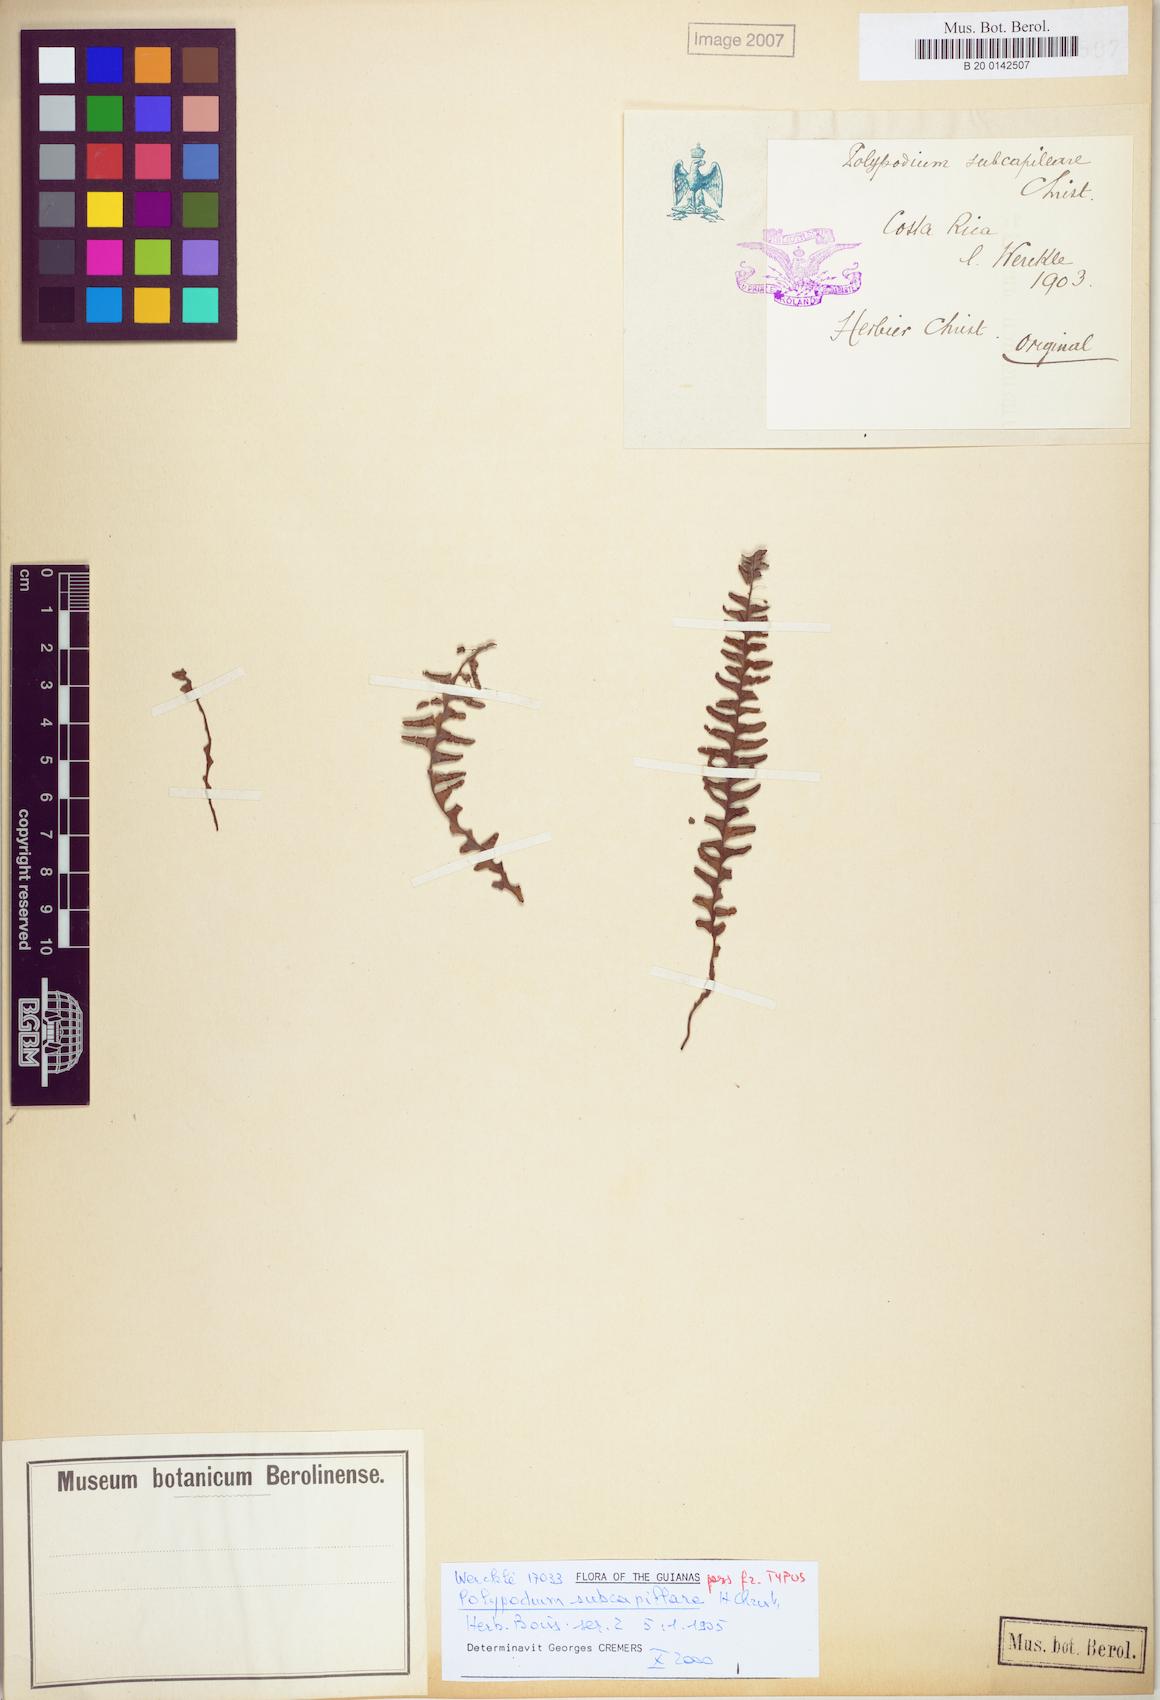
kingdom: Plantae
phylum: Tracheophyta
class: Polypodiopsida
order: Polypodiales
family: Polypodiaceae
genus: Lellingeria
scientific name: Lellingeria suspensa
